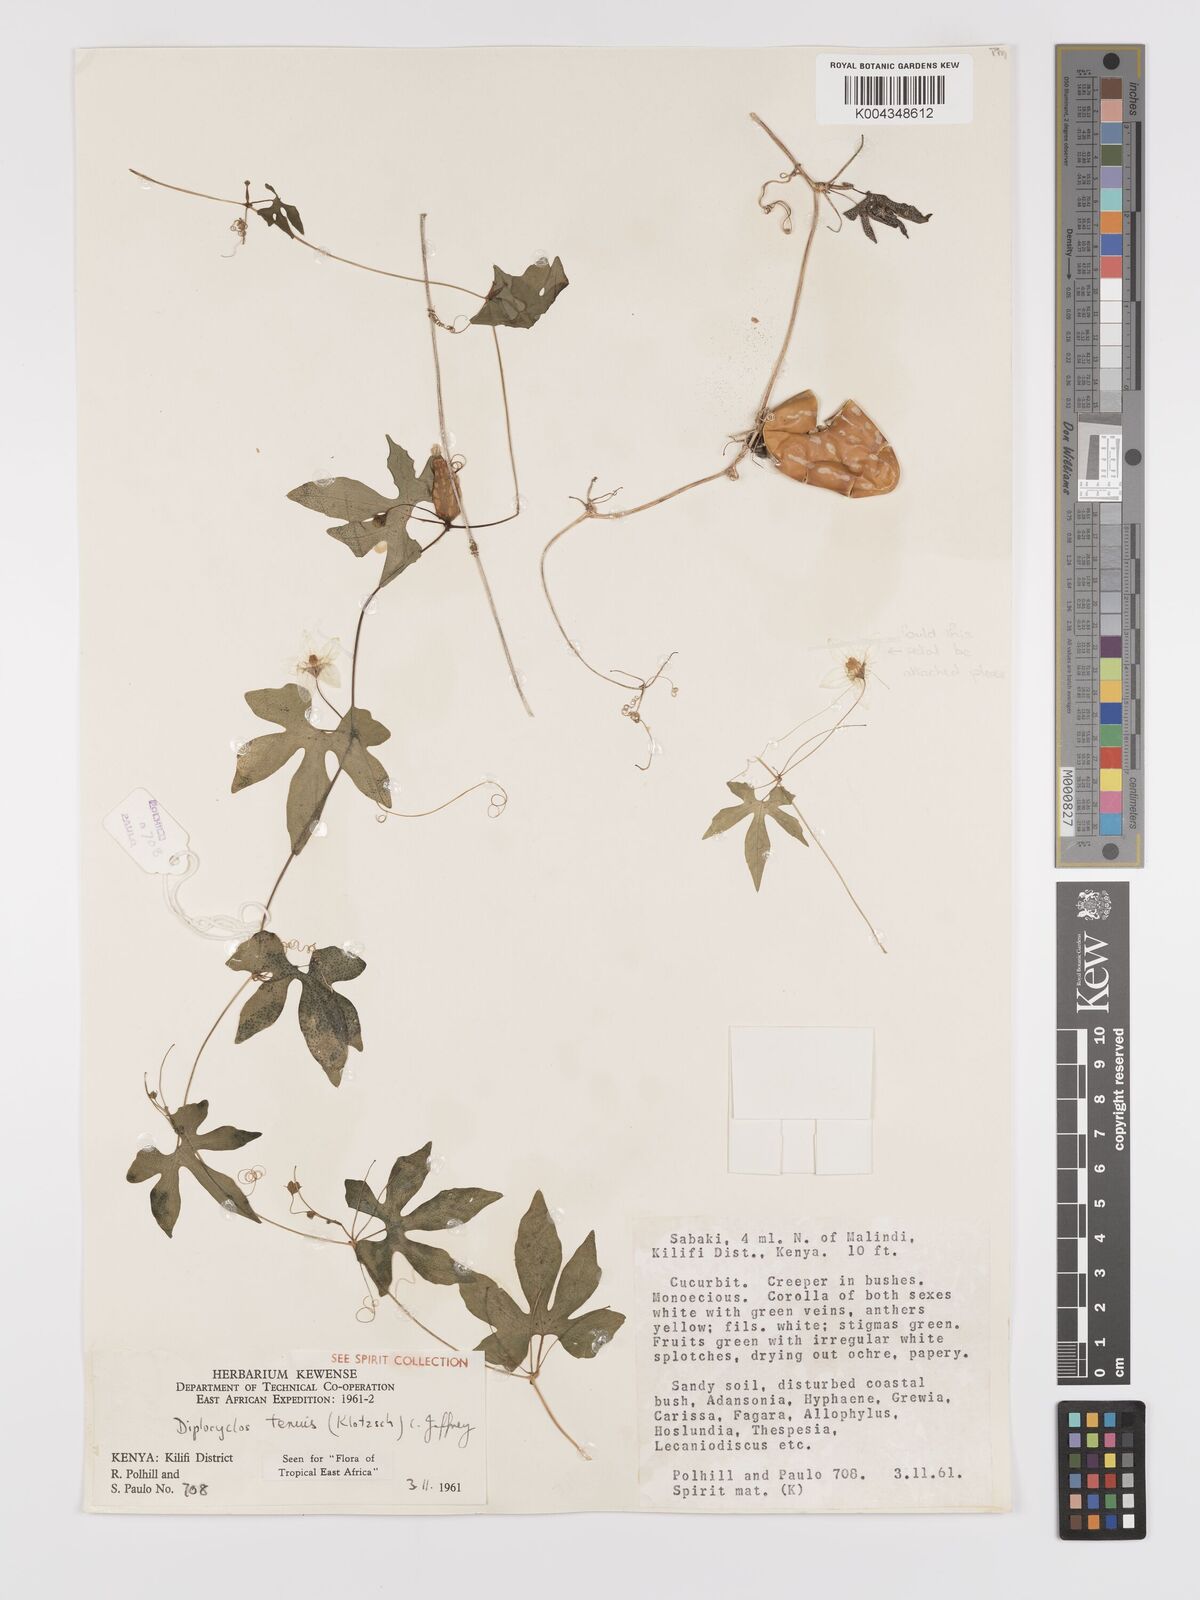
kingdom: Plantae
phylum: Tracheophyta
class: Magnoliopsida
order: Cucurbitales
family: Cucurbitaceae
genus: Diplocyclos
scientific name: Diplocyclos tenuis
